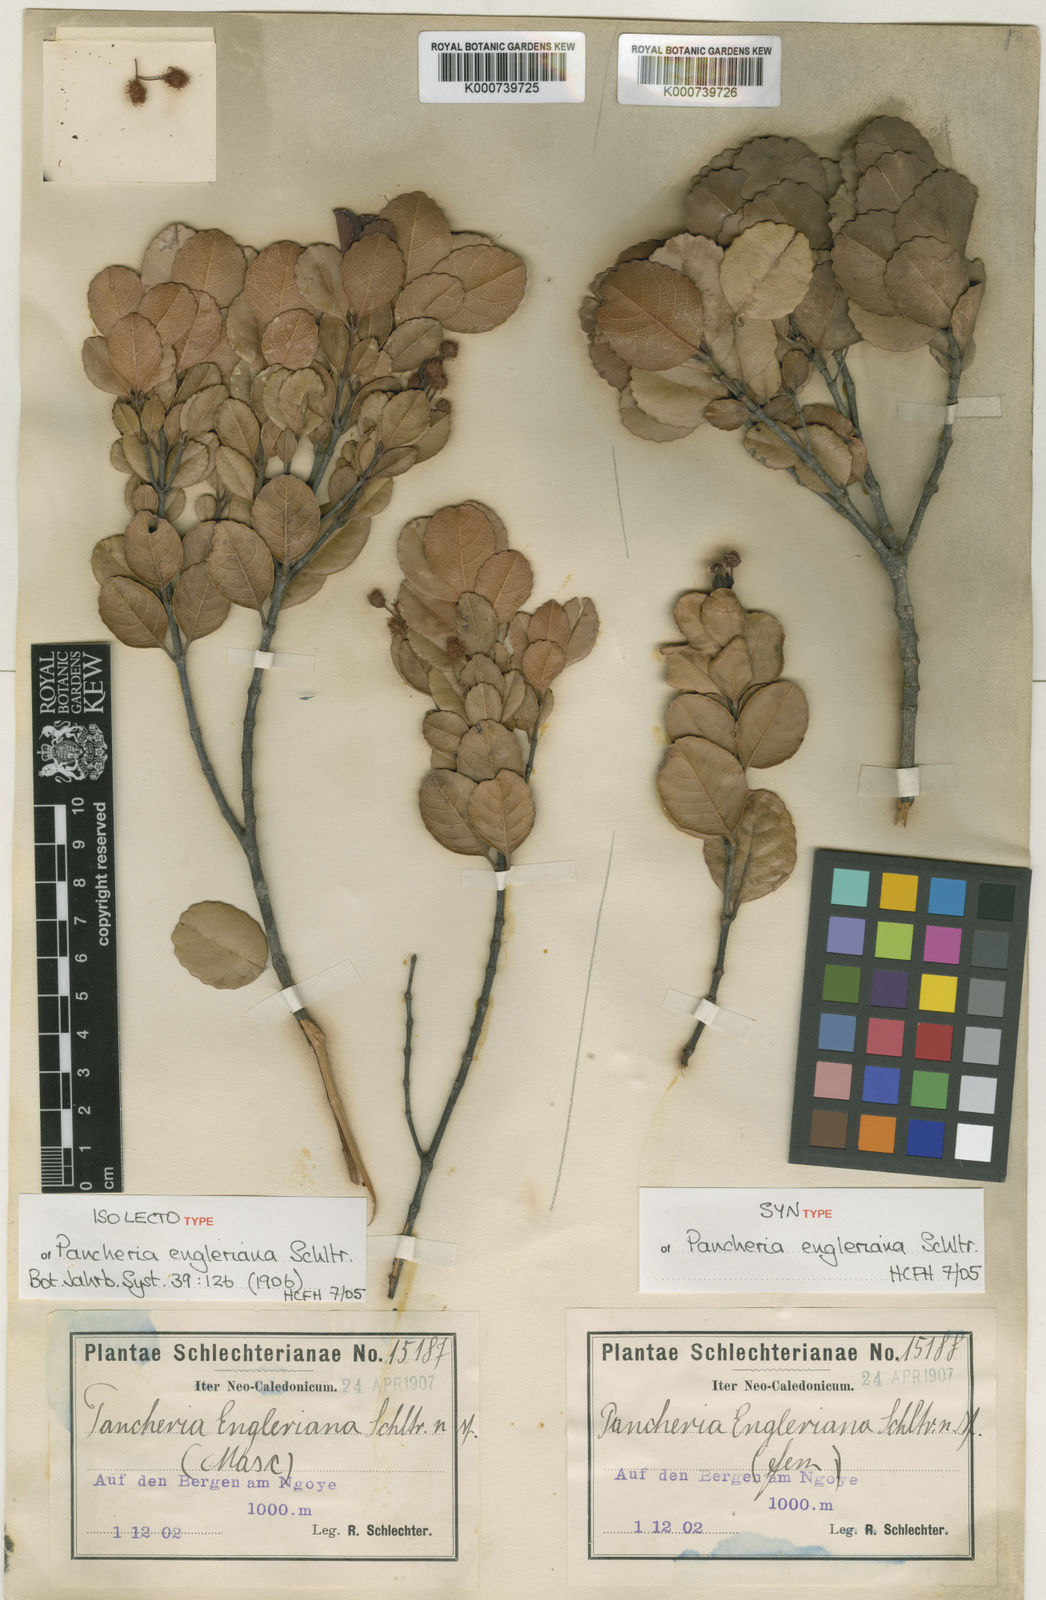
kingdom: Plantae
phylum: Tracheophyta
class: Magnoliopsida
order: Oxalidales
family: Cunoniaceae
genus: Pancheria
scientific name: Pancheria engleriana
